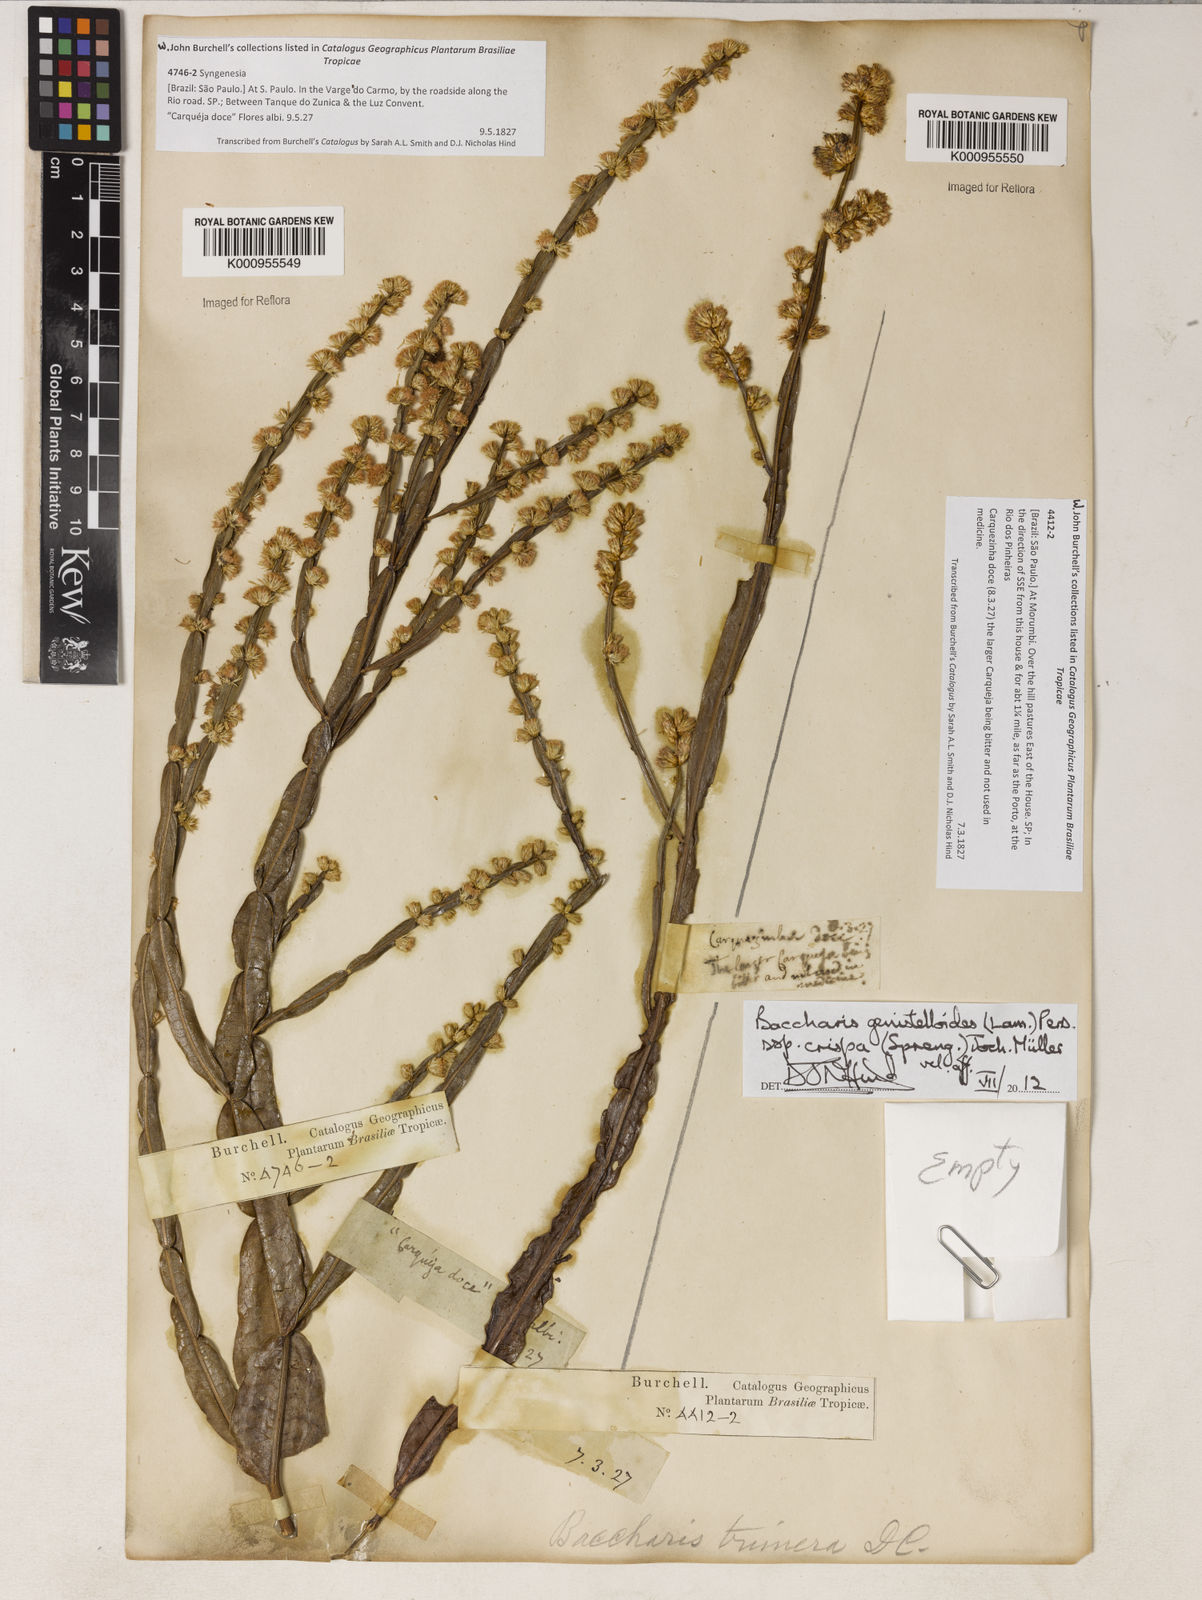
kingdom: Plantae
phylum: Tracheophyta
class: Magnoliopsida
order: Asterales
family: Asteraceae
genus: Baccharis
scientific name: Baccharis genistelloides
